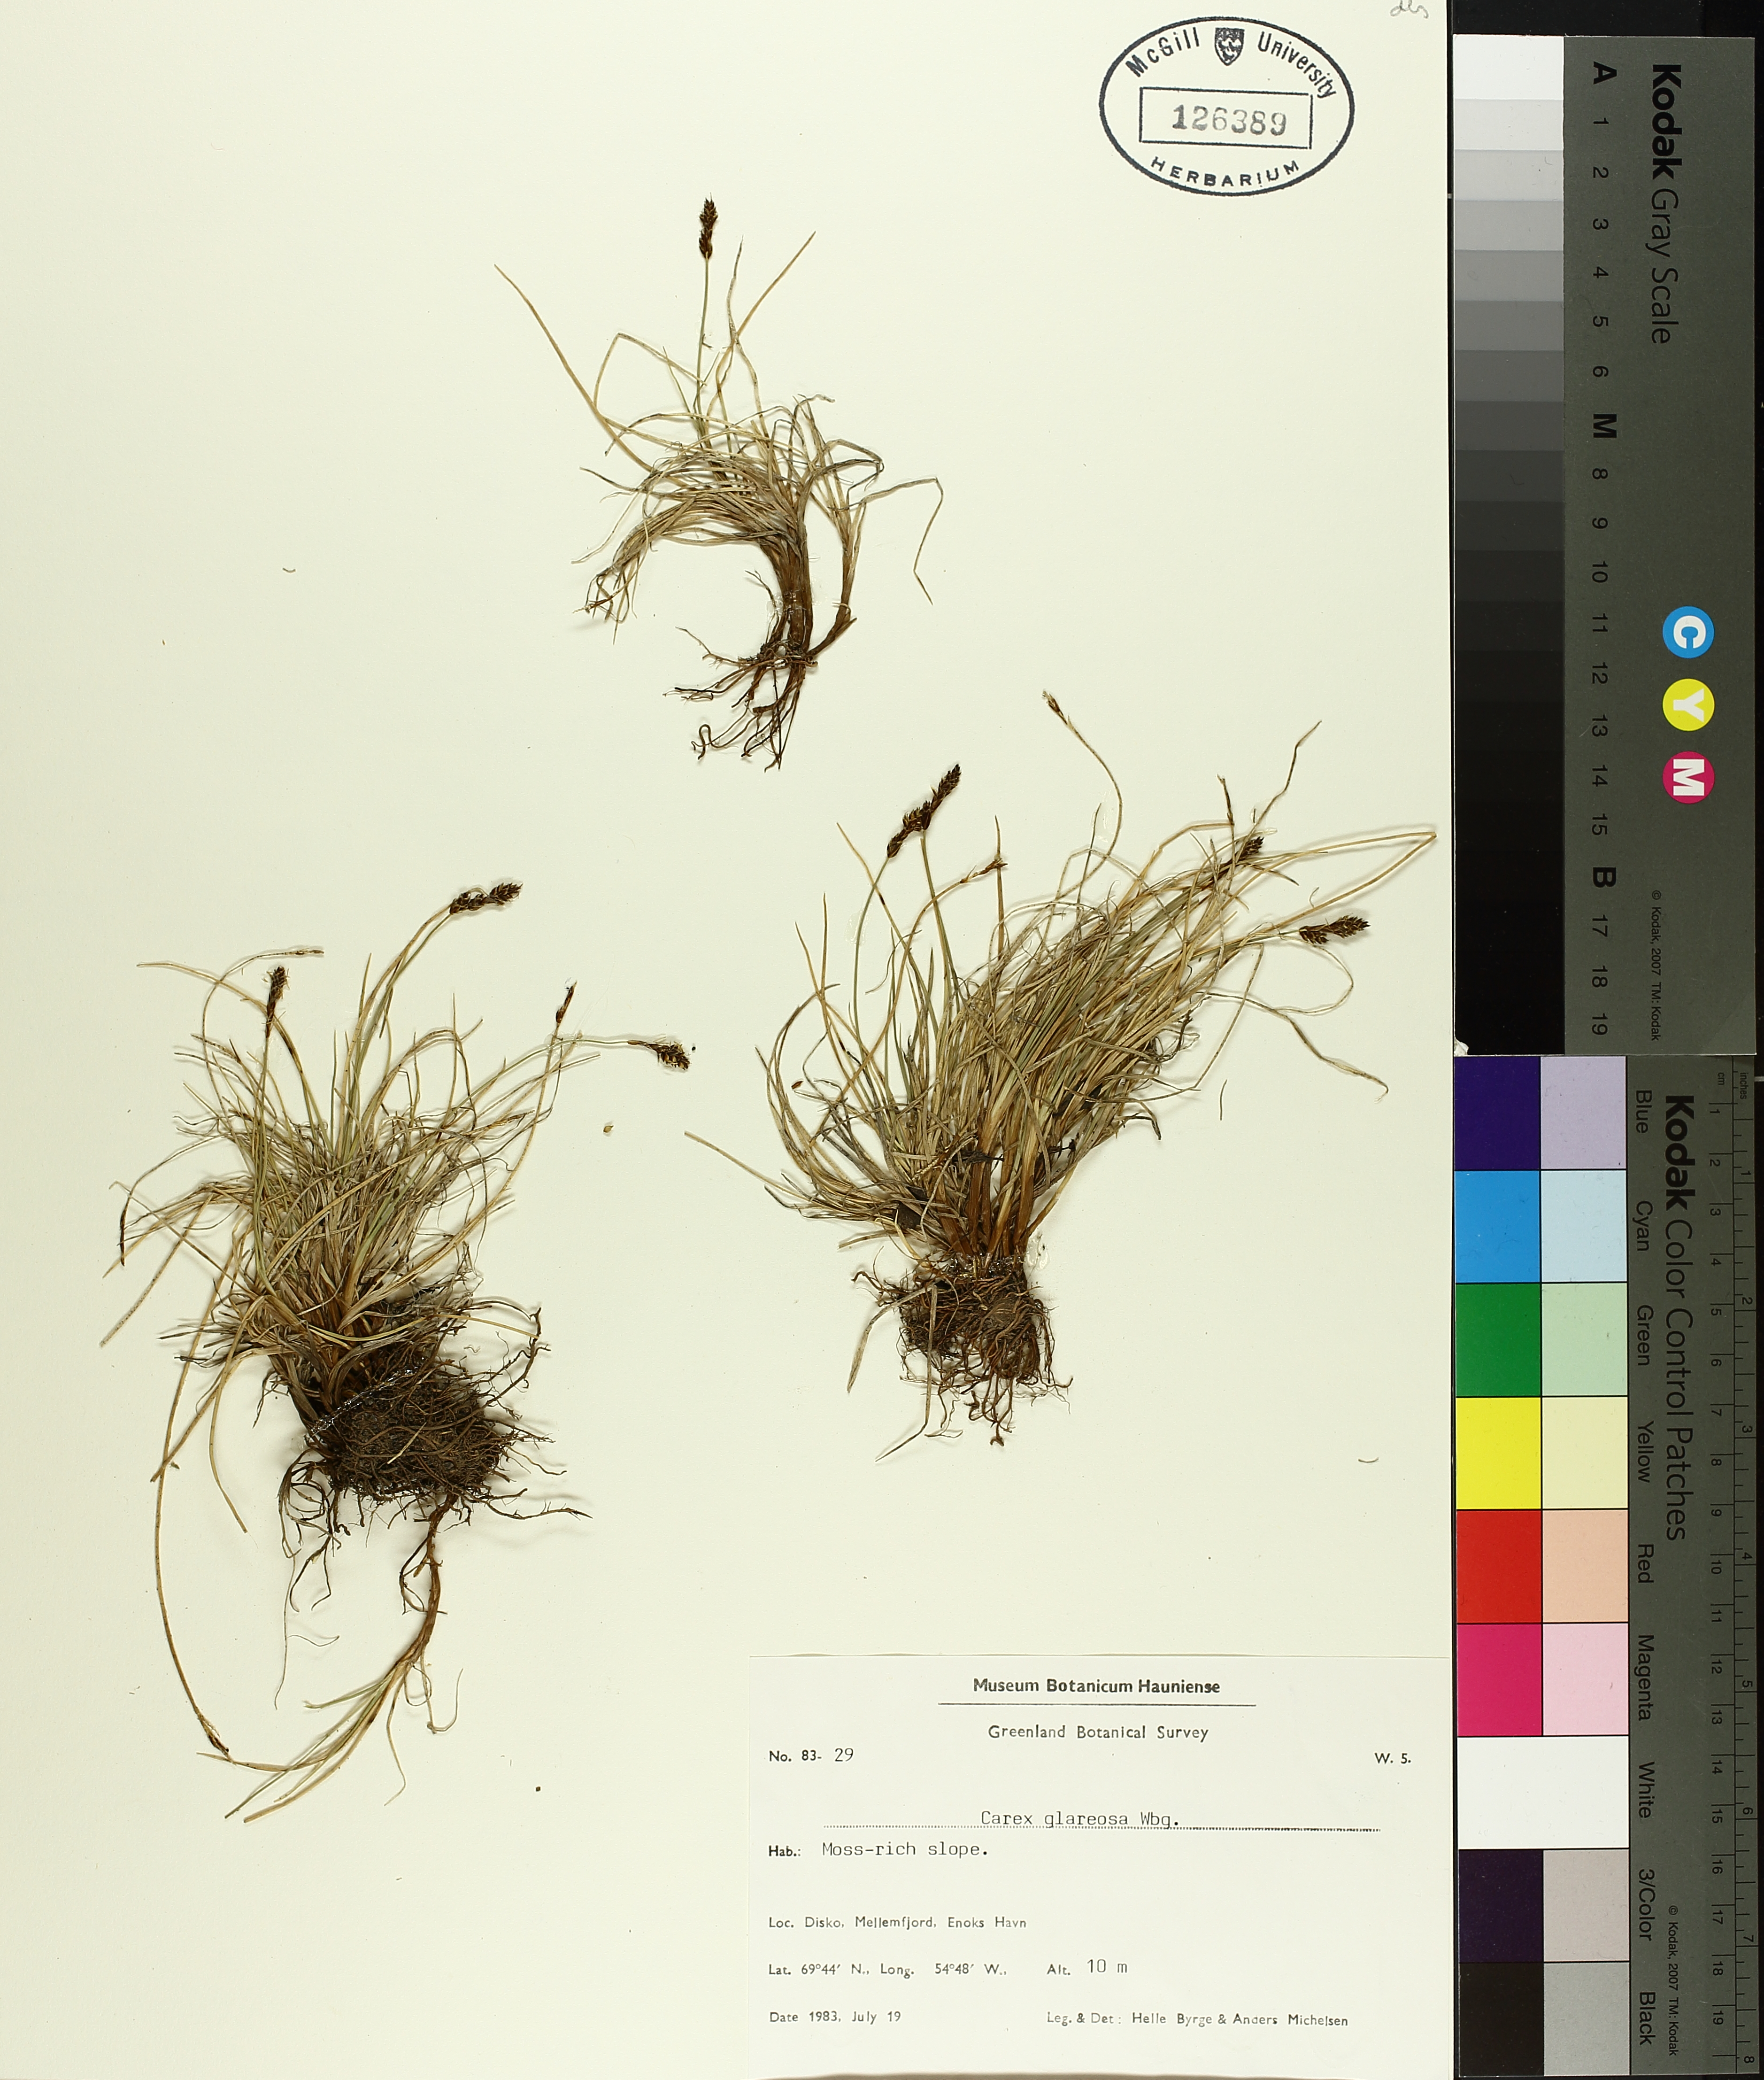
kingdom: Plantae
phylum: Tracheophyta
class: Liliopsida
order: Poales
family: Cyperaceae
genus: Carex
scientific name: Carex glareosa
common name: Clustered sedge
